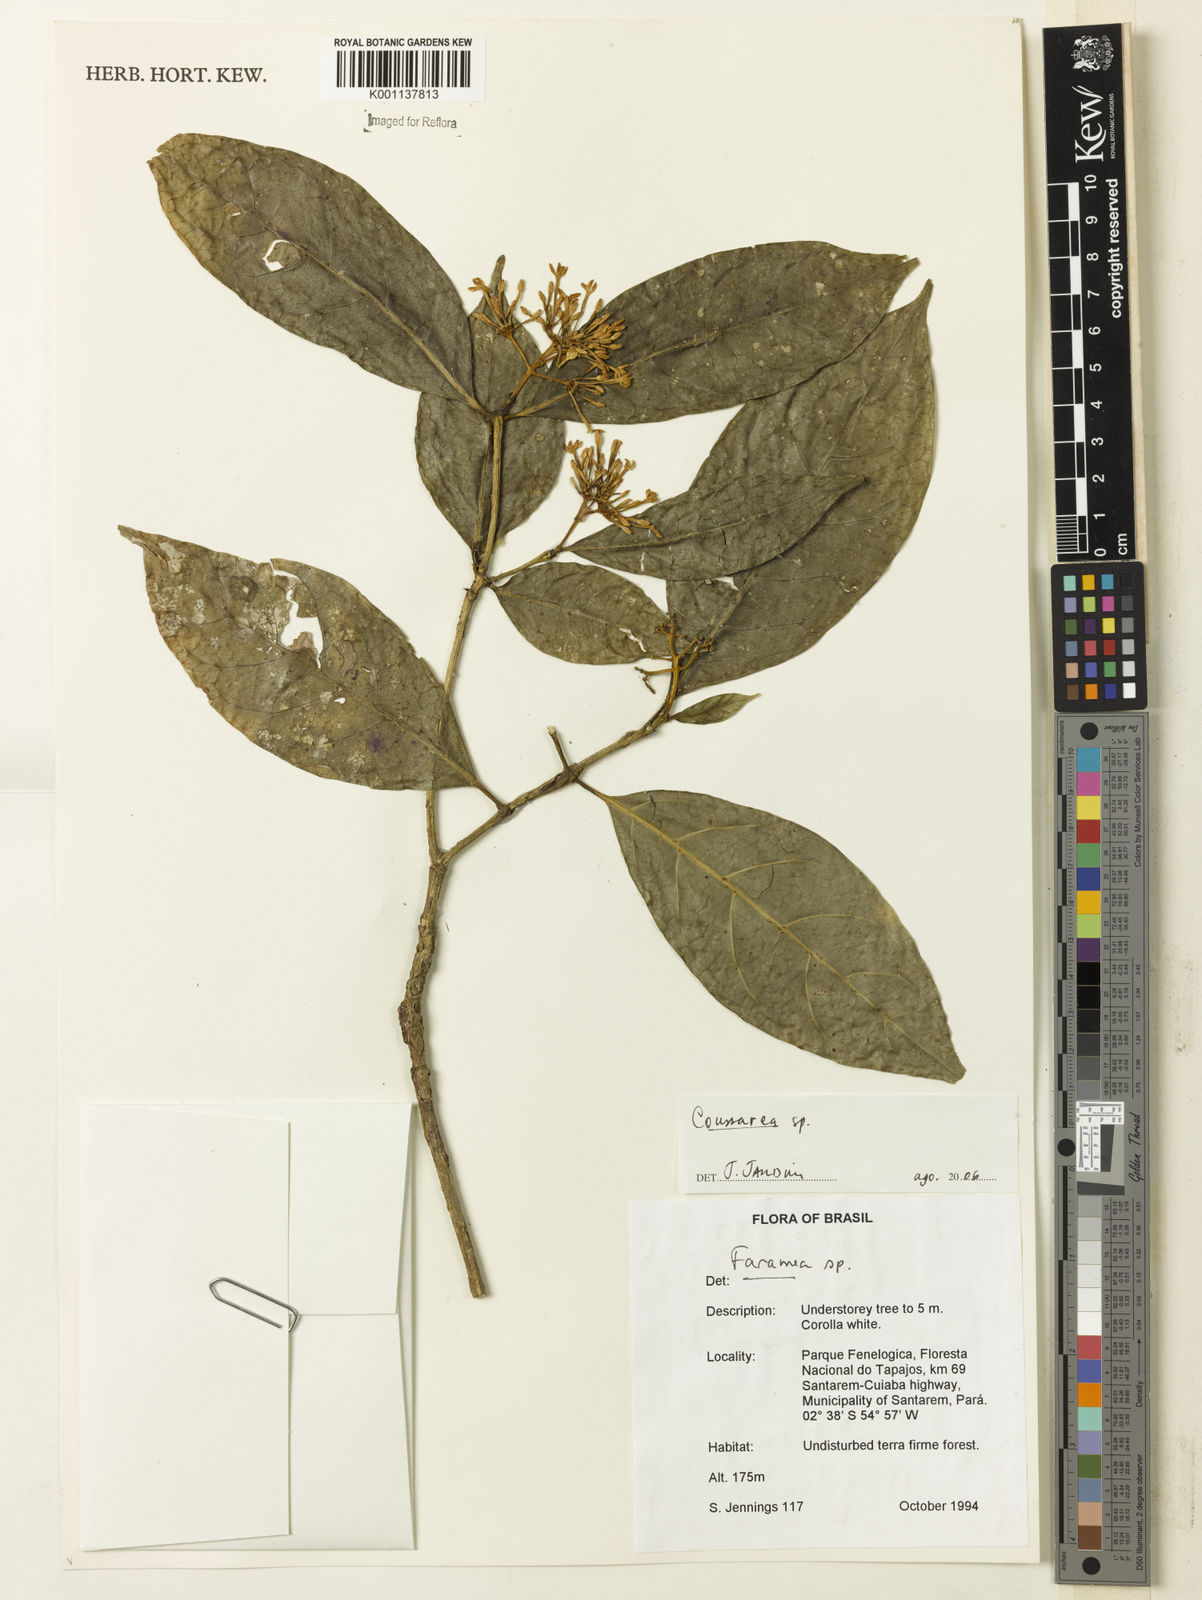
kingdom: Plantae
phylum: Tracheophyta
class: Magnoliopsida
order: Gentianales
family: Rubiaceae
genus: Coussarea
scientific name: Coussarea
